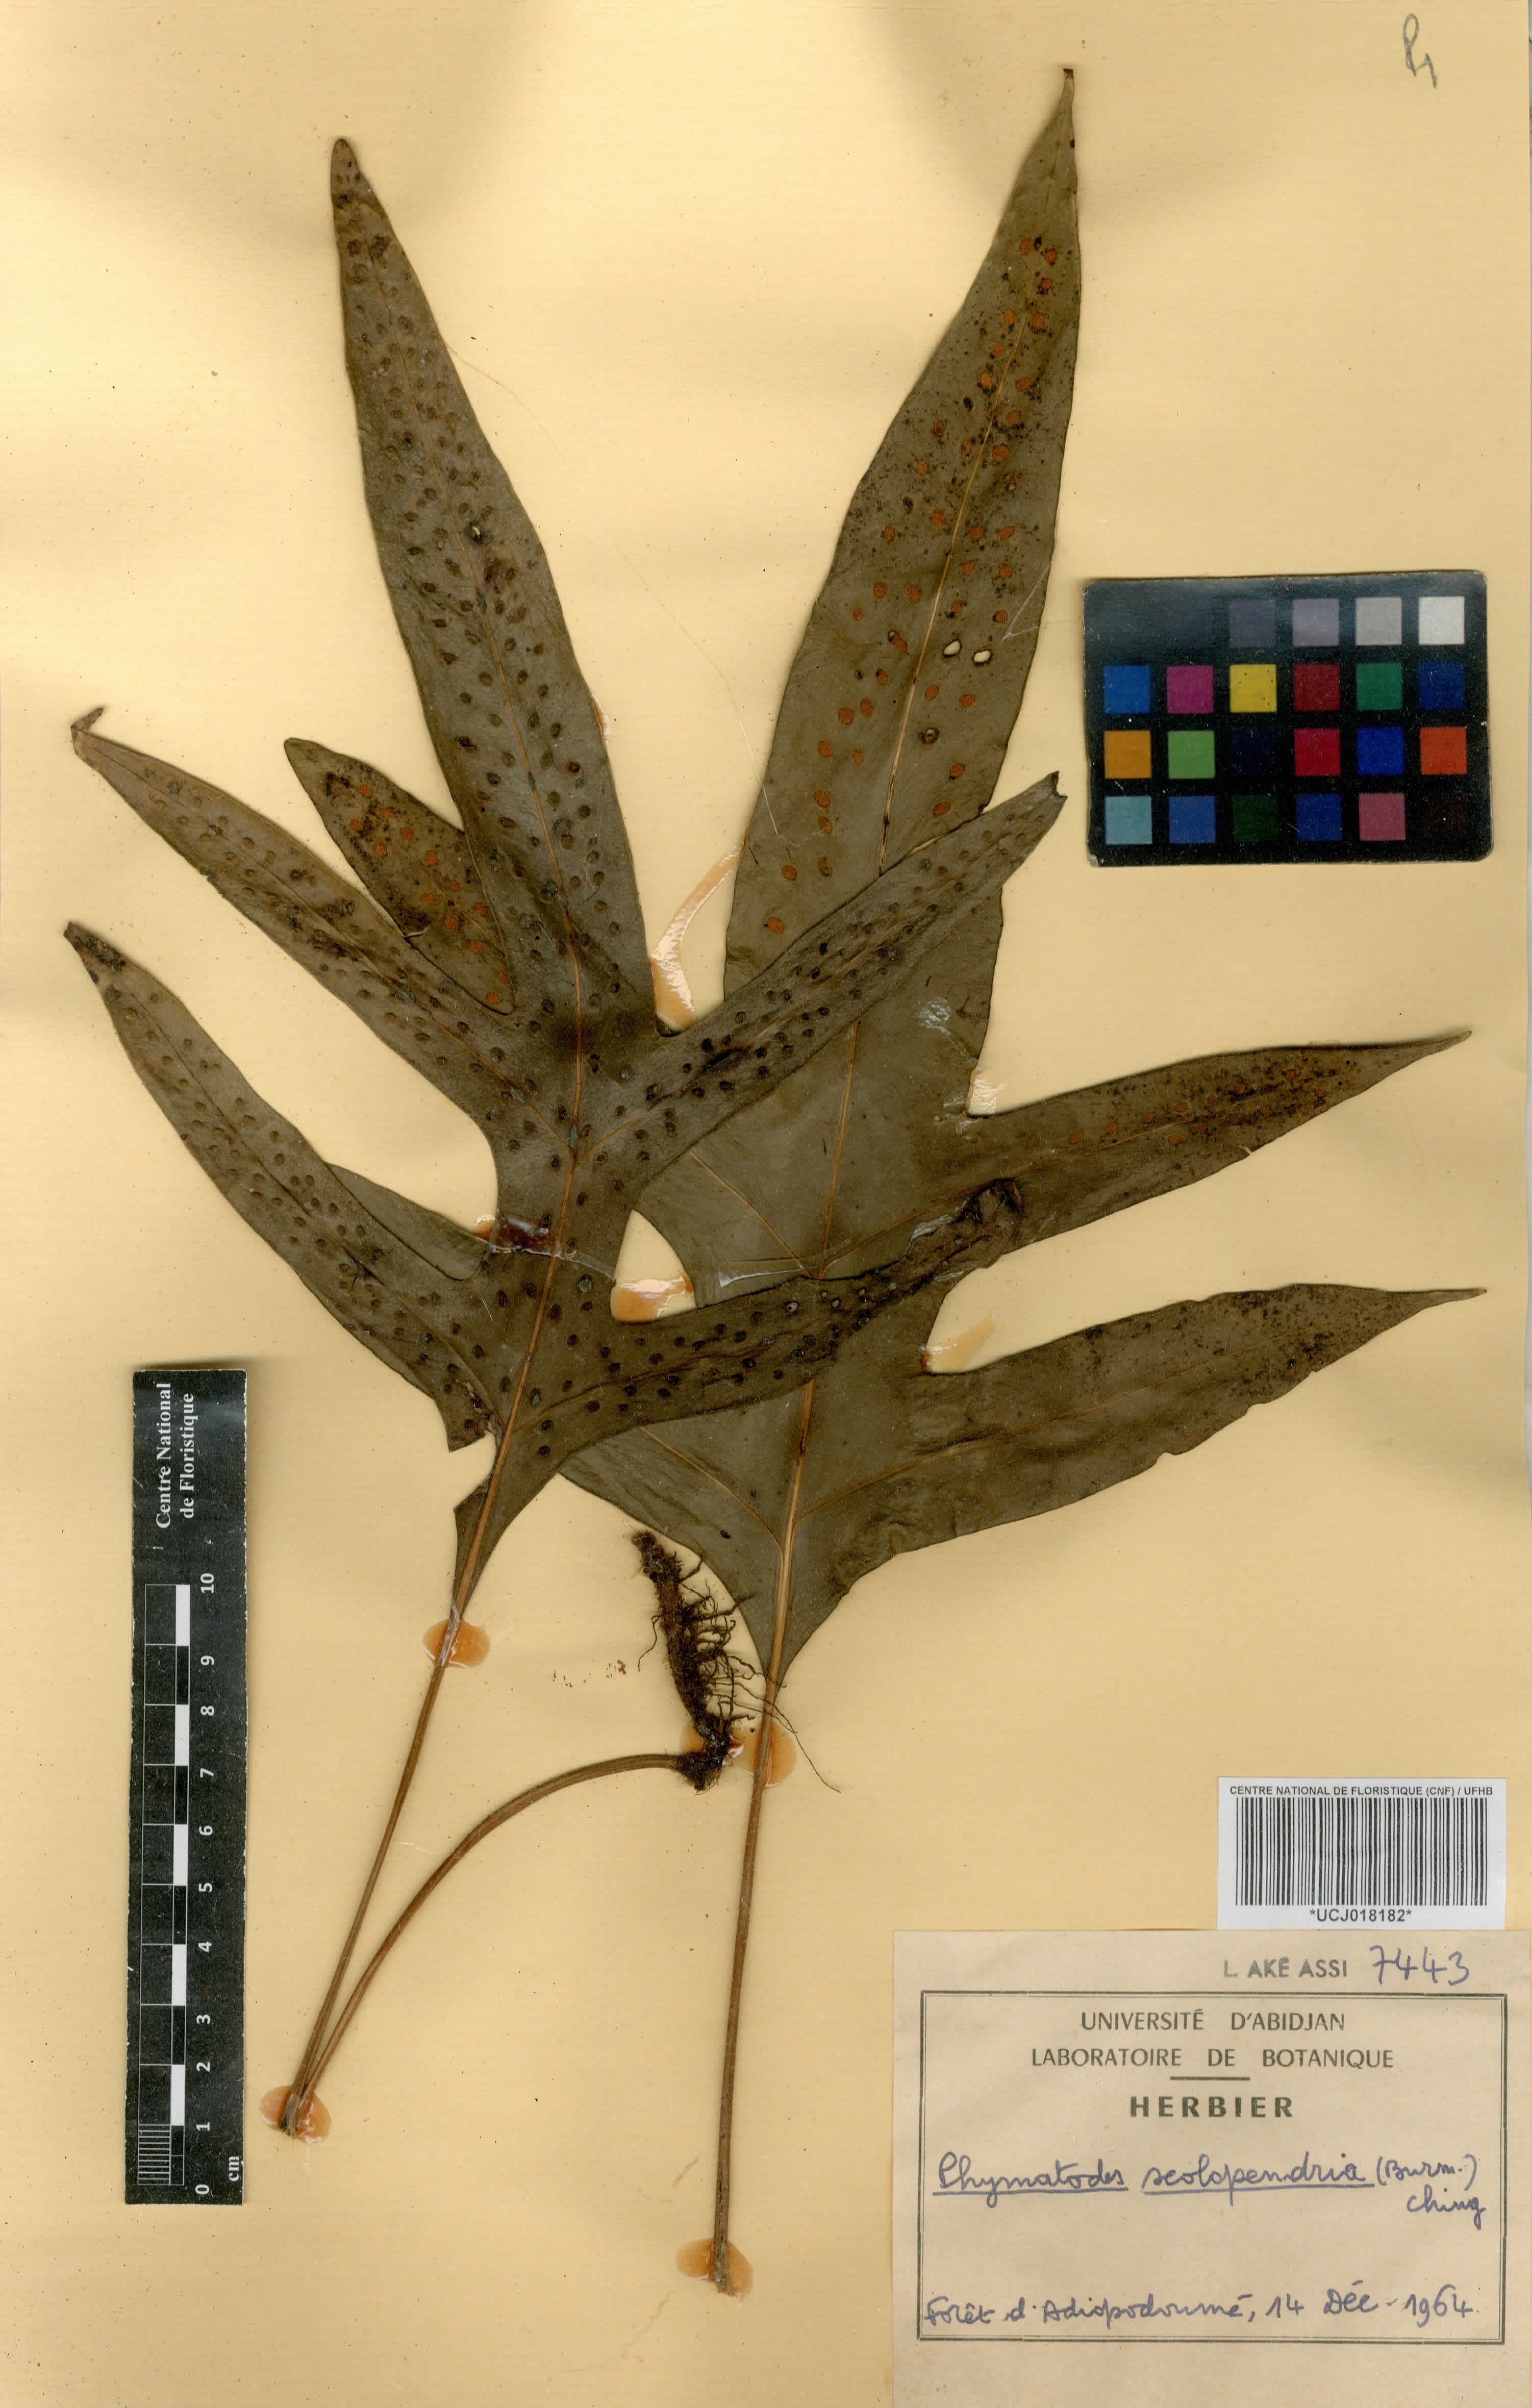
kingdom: Plantae
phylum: Tracheophyta
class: Polypodiopsida
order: Polypodiales
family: Polypodiaceae
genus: Microsorum
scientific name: Microsorum scolopendria
